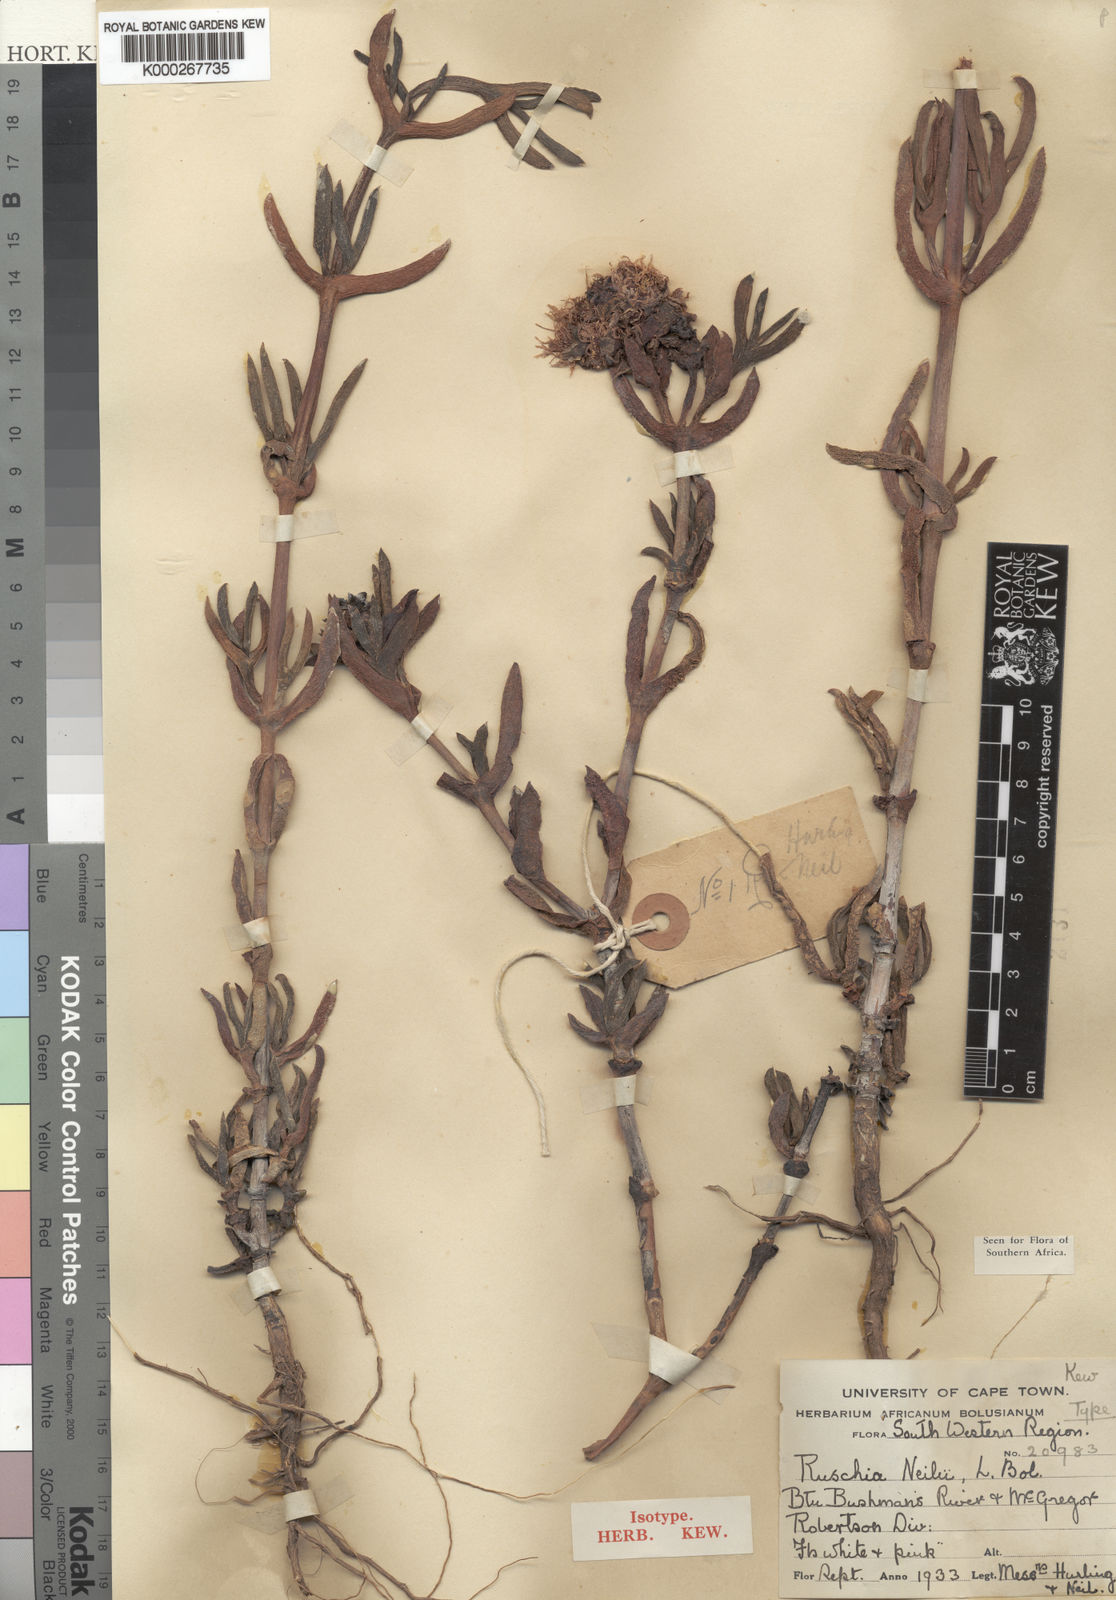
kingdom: Plantae
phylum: Tracheophyta
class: Magnoliopsida
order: Caryophyllales
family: Aizoaceae
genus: Ruschia
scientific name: Ruschia nelii
